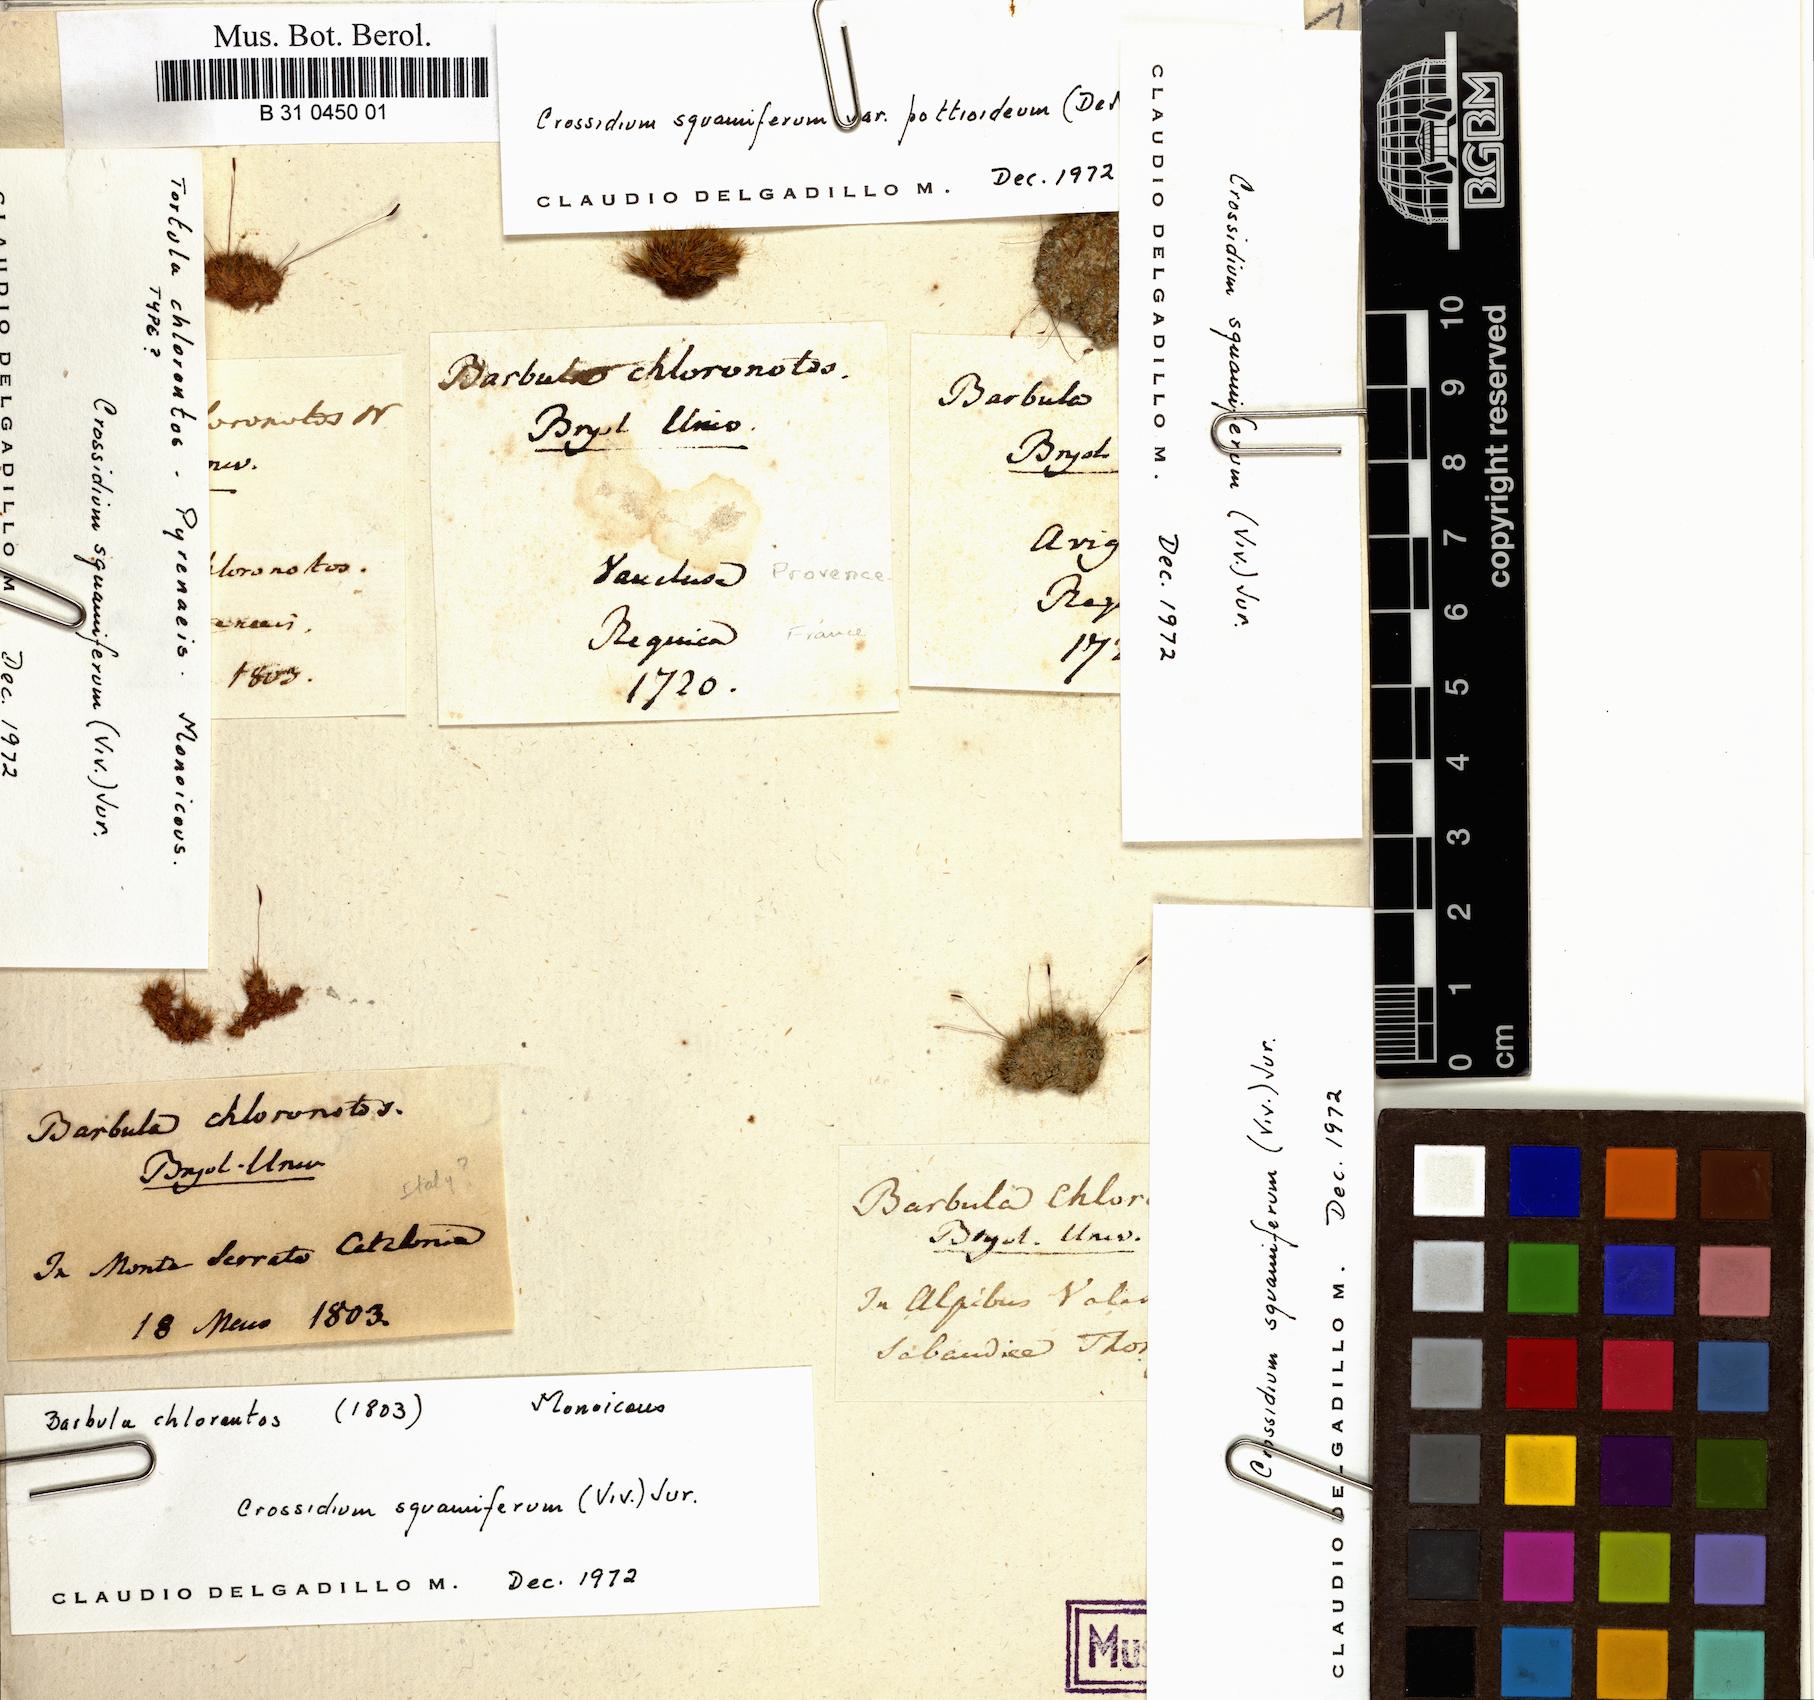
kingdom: Plantae
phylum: Bryophyta
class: Bryopsida
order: Pottiales
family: Pottiaceae
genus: Crossidium
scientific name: Crossidium squamiferum
